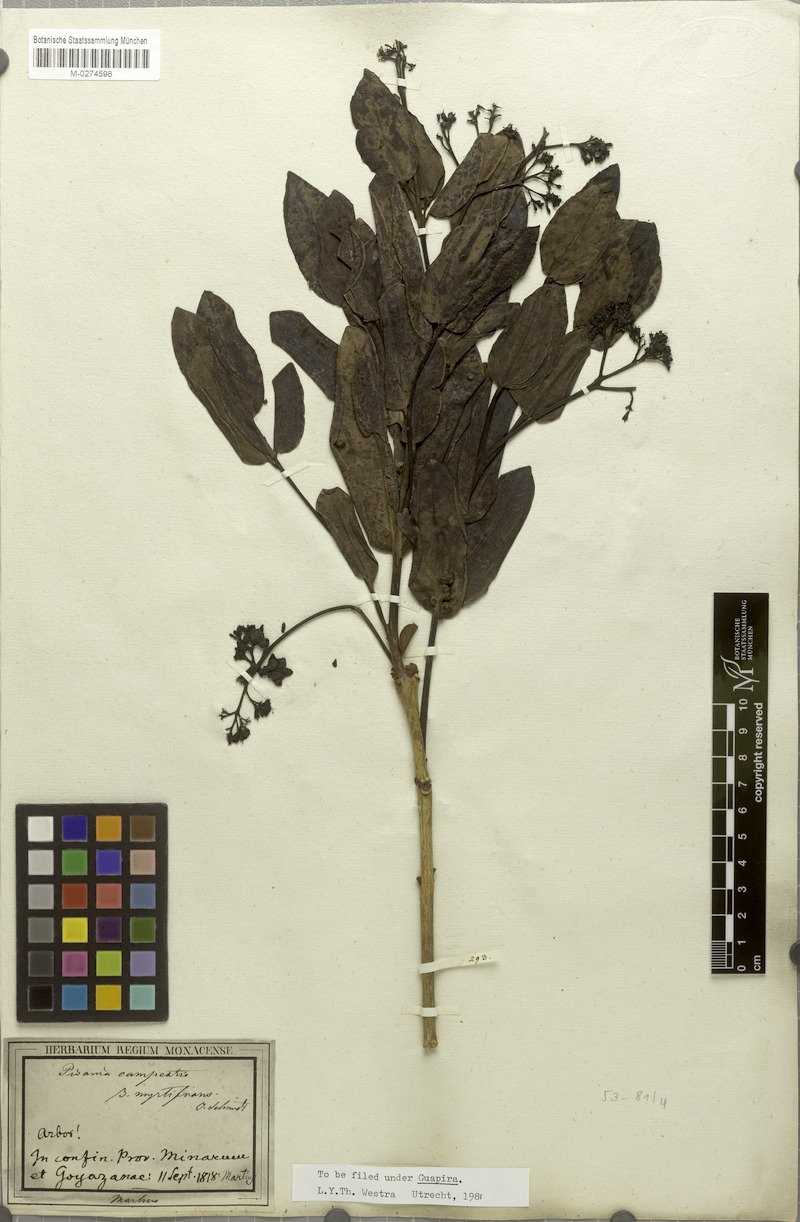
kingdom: Plantae
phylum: Tracheophyta
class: Magnoliopsida
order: Caryophyllales
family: Nyctaginaceae
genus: Guapira
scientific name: Guapira campestris
